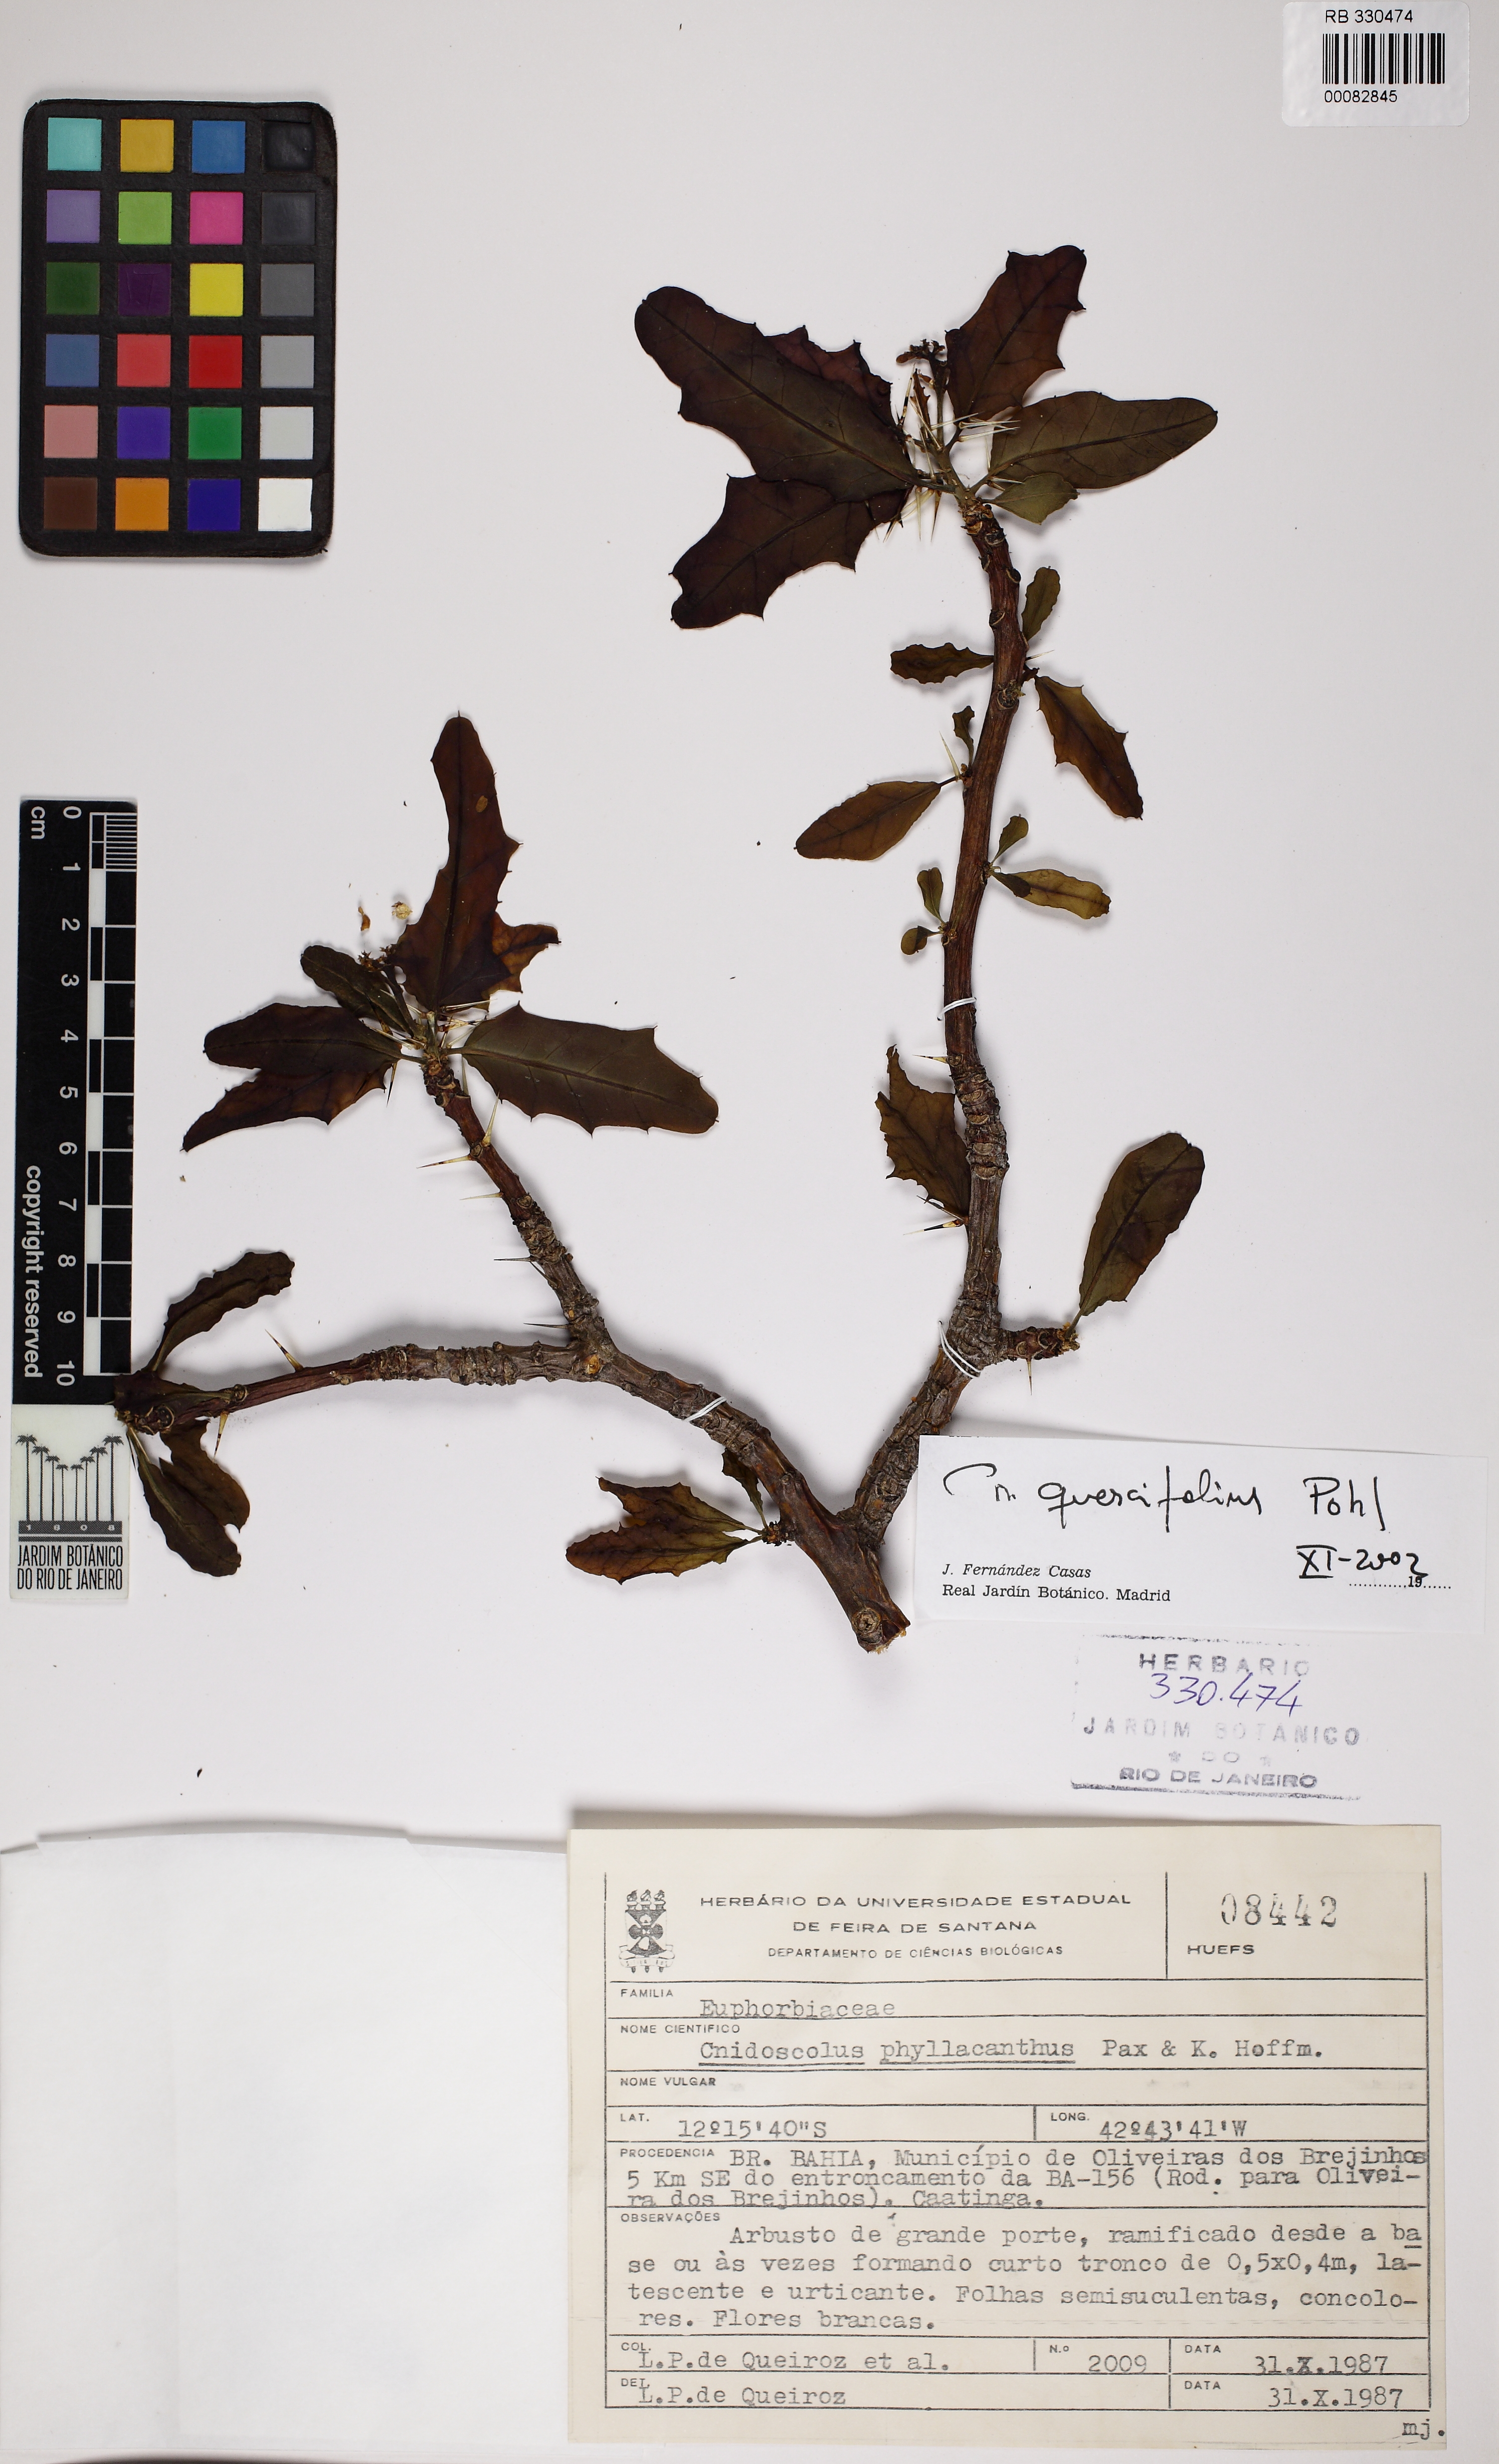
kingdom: Plantae
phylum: Tracheophyta
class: Magnoliopsida
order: Malpighiales
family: Euphorbiaceae
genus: Cnidoscolus
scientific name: Cnidoscolus quercifolius
